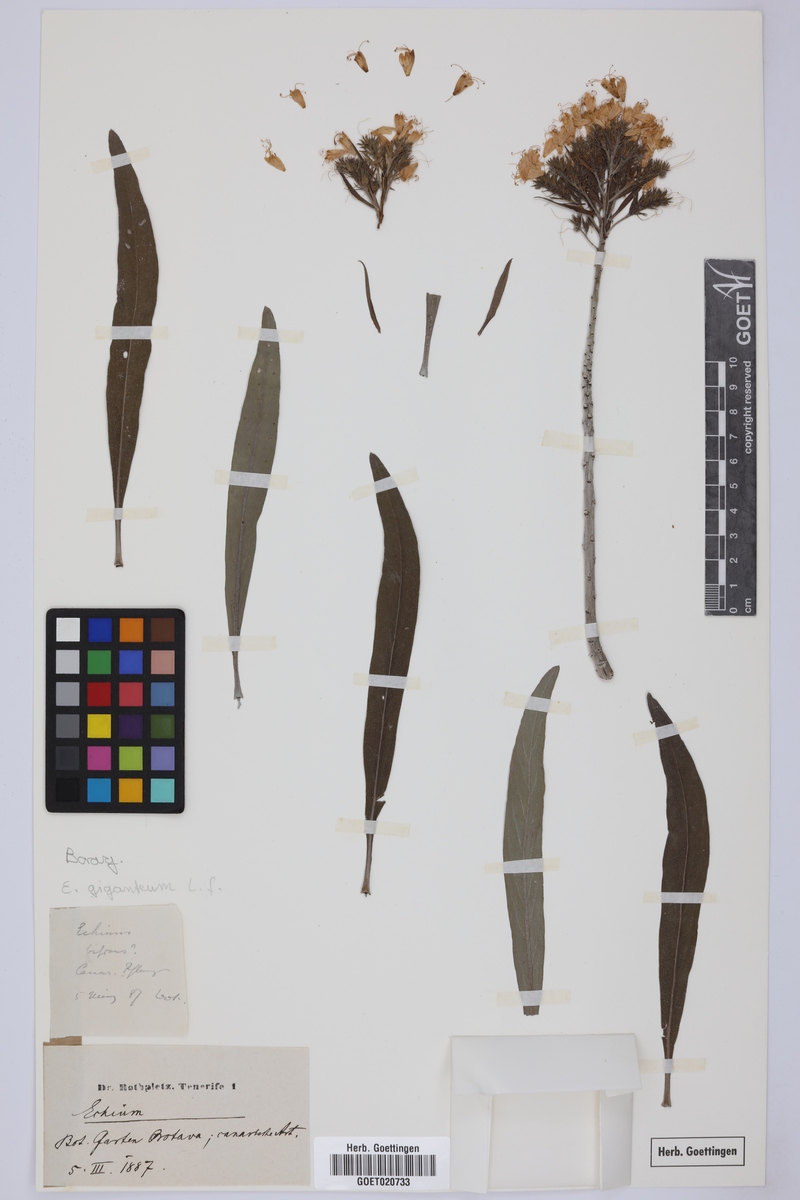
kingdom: Plantae
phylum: Tracheophyta
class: Magnoliopsida
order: Boraginales
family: Boraginaceae
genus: Echium
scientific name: Echium giganteum
